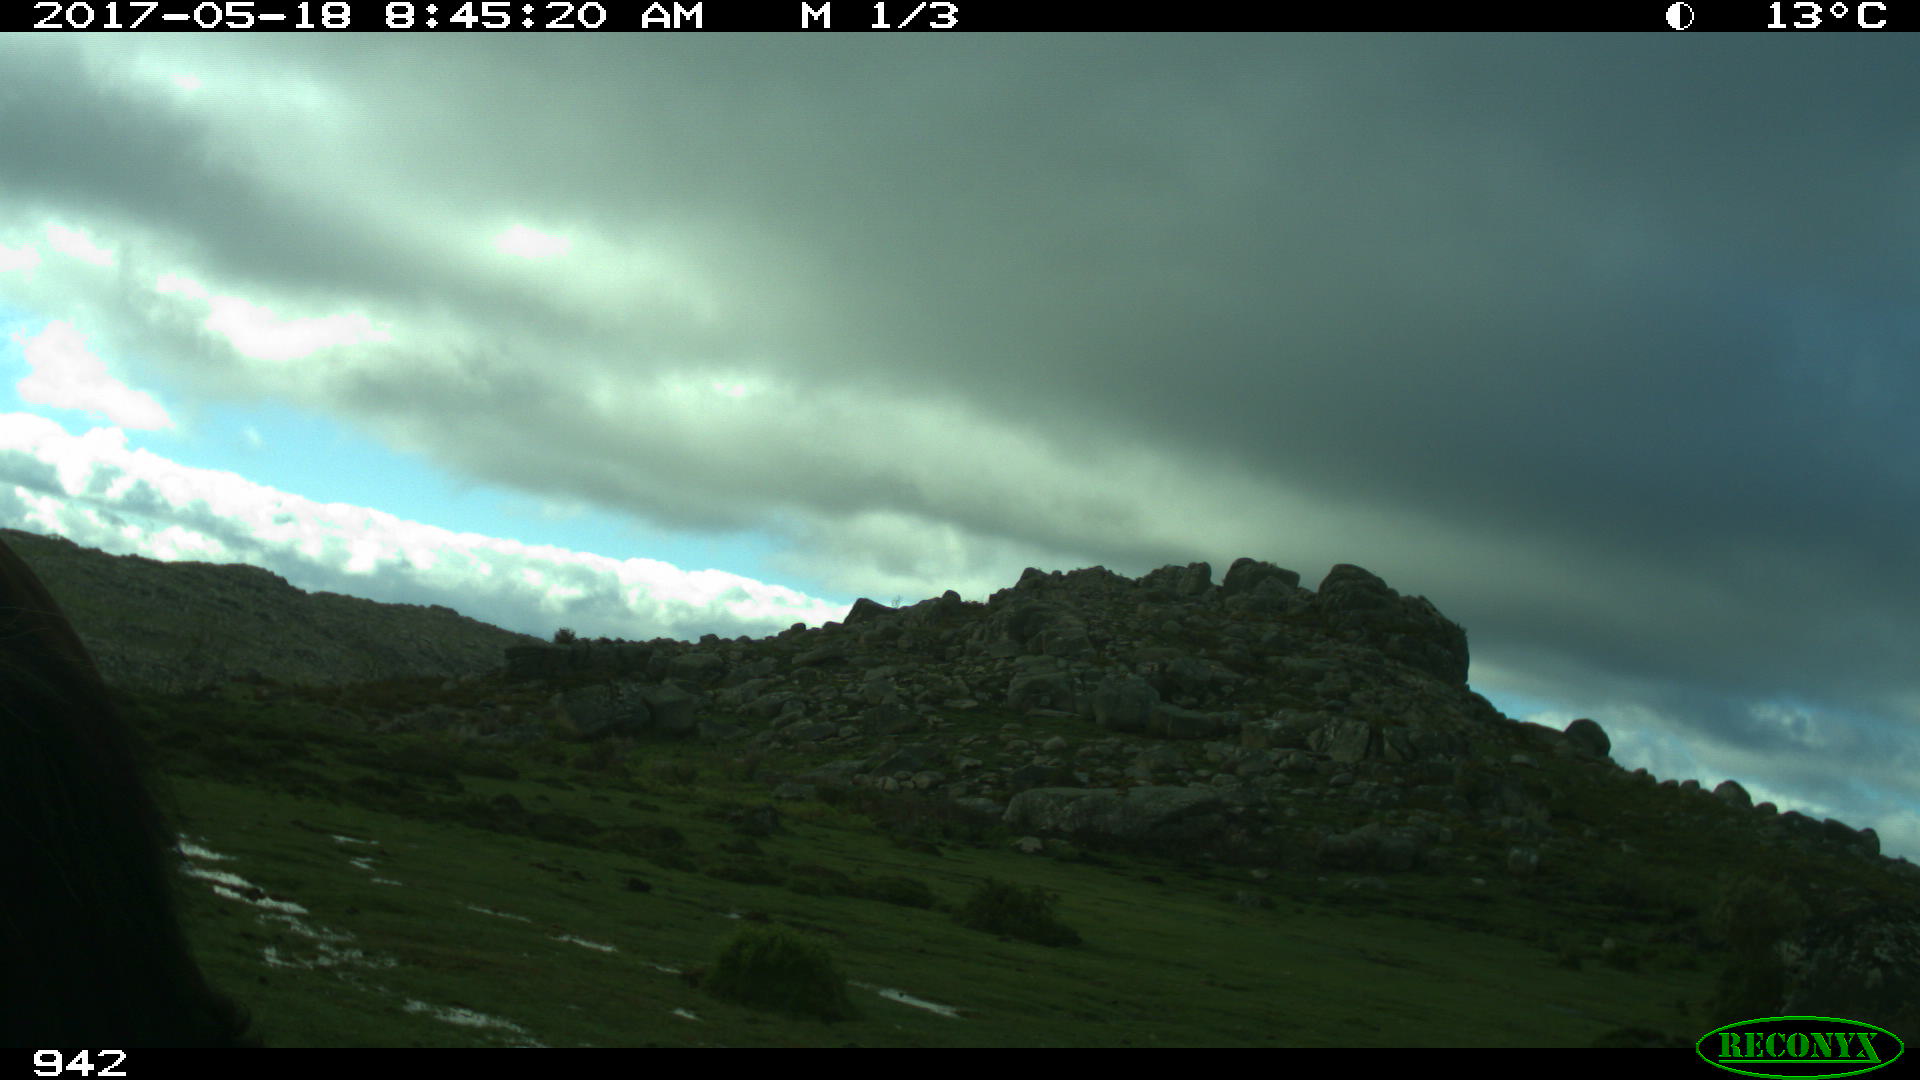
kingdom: Animalia
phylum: Chordata
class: Mammalia
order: Perissodactyla
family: Equidae
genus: Equus
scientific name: Equus caballus
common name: Horse
